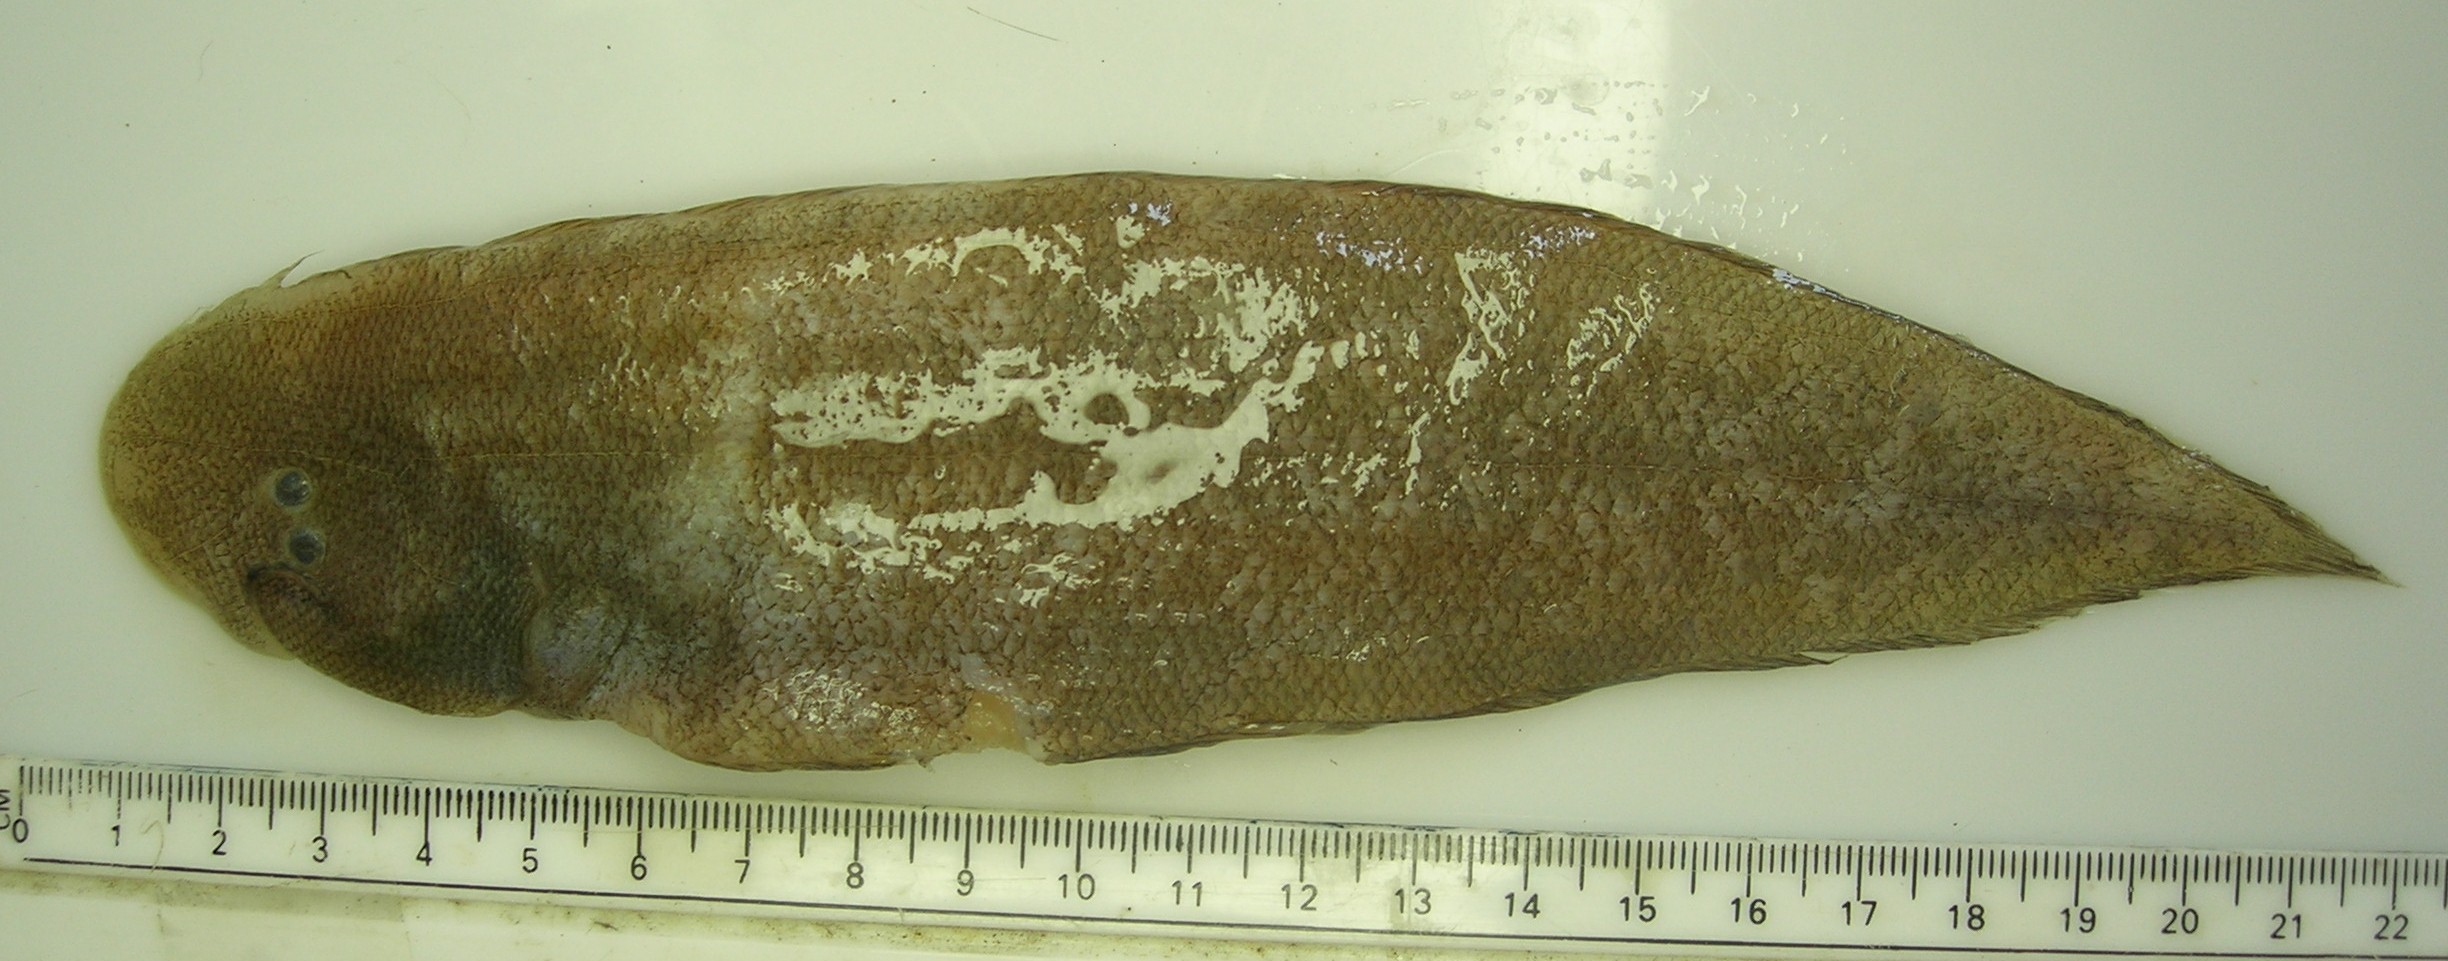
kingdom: Animalia
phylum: Chordata
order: Pleuronectiformes
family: Cynoglossidae
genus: Cynoglossus
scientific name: Cynoglossus lida
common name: Roughscale tonguesole
